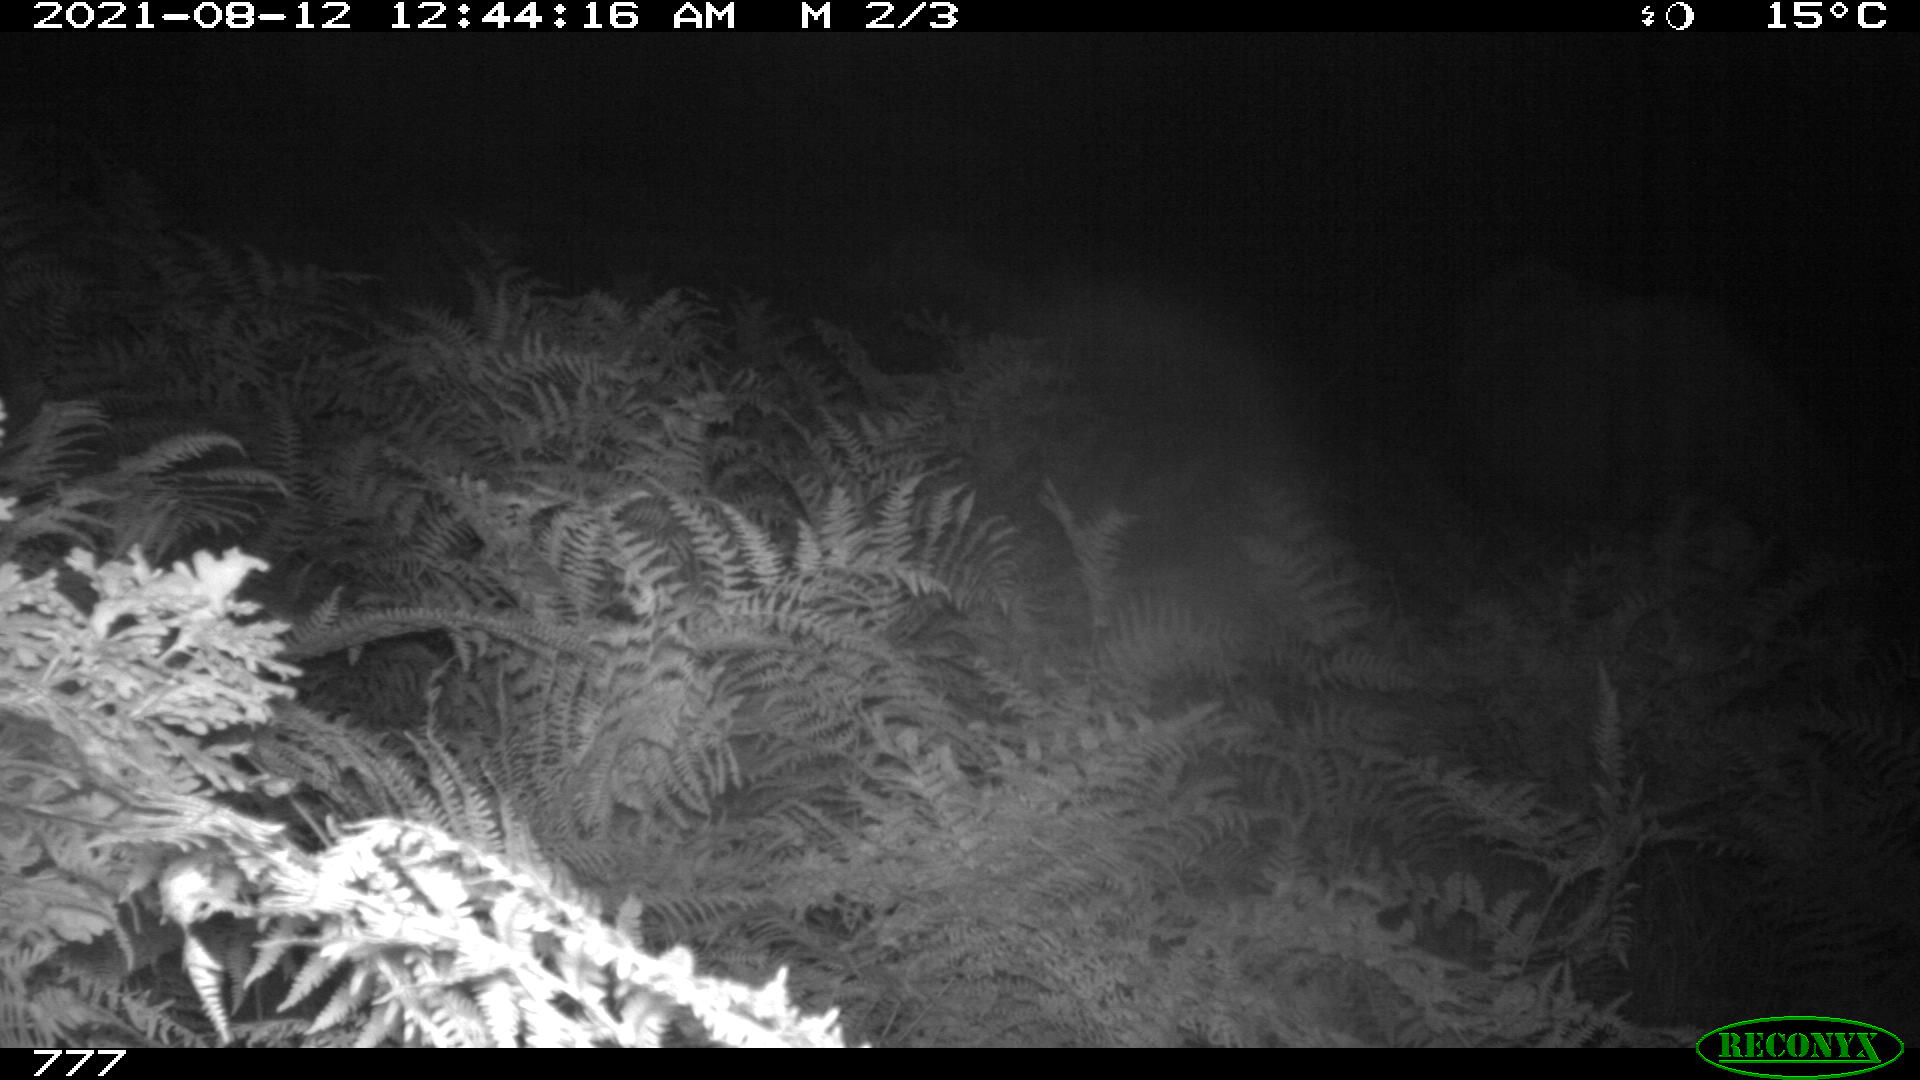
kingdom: Animalia
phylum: Chordata
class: Mammalia
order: Perissodactyla
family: Equidae
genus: Equus
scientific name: Equus caballus
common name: Horse
